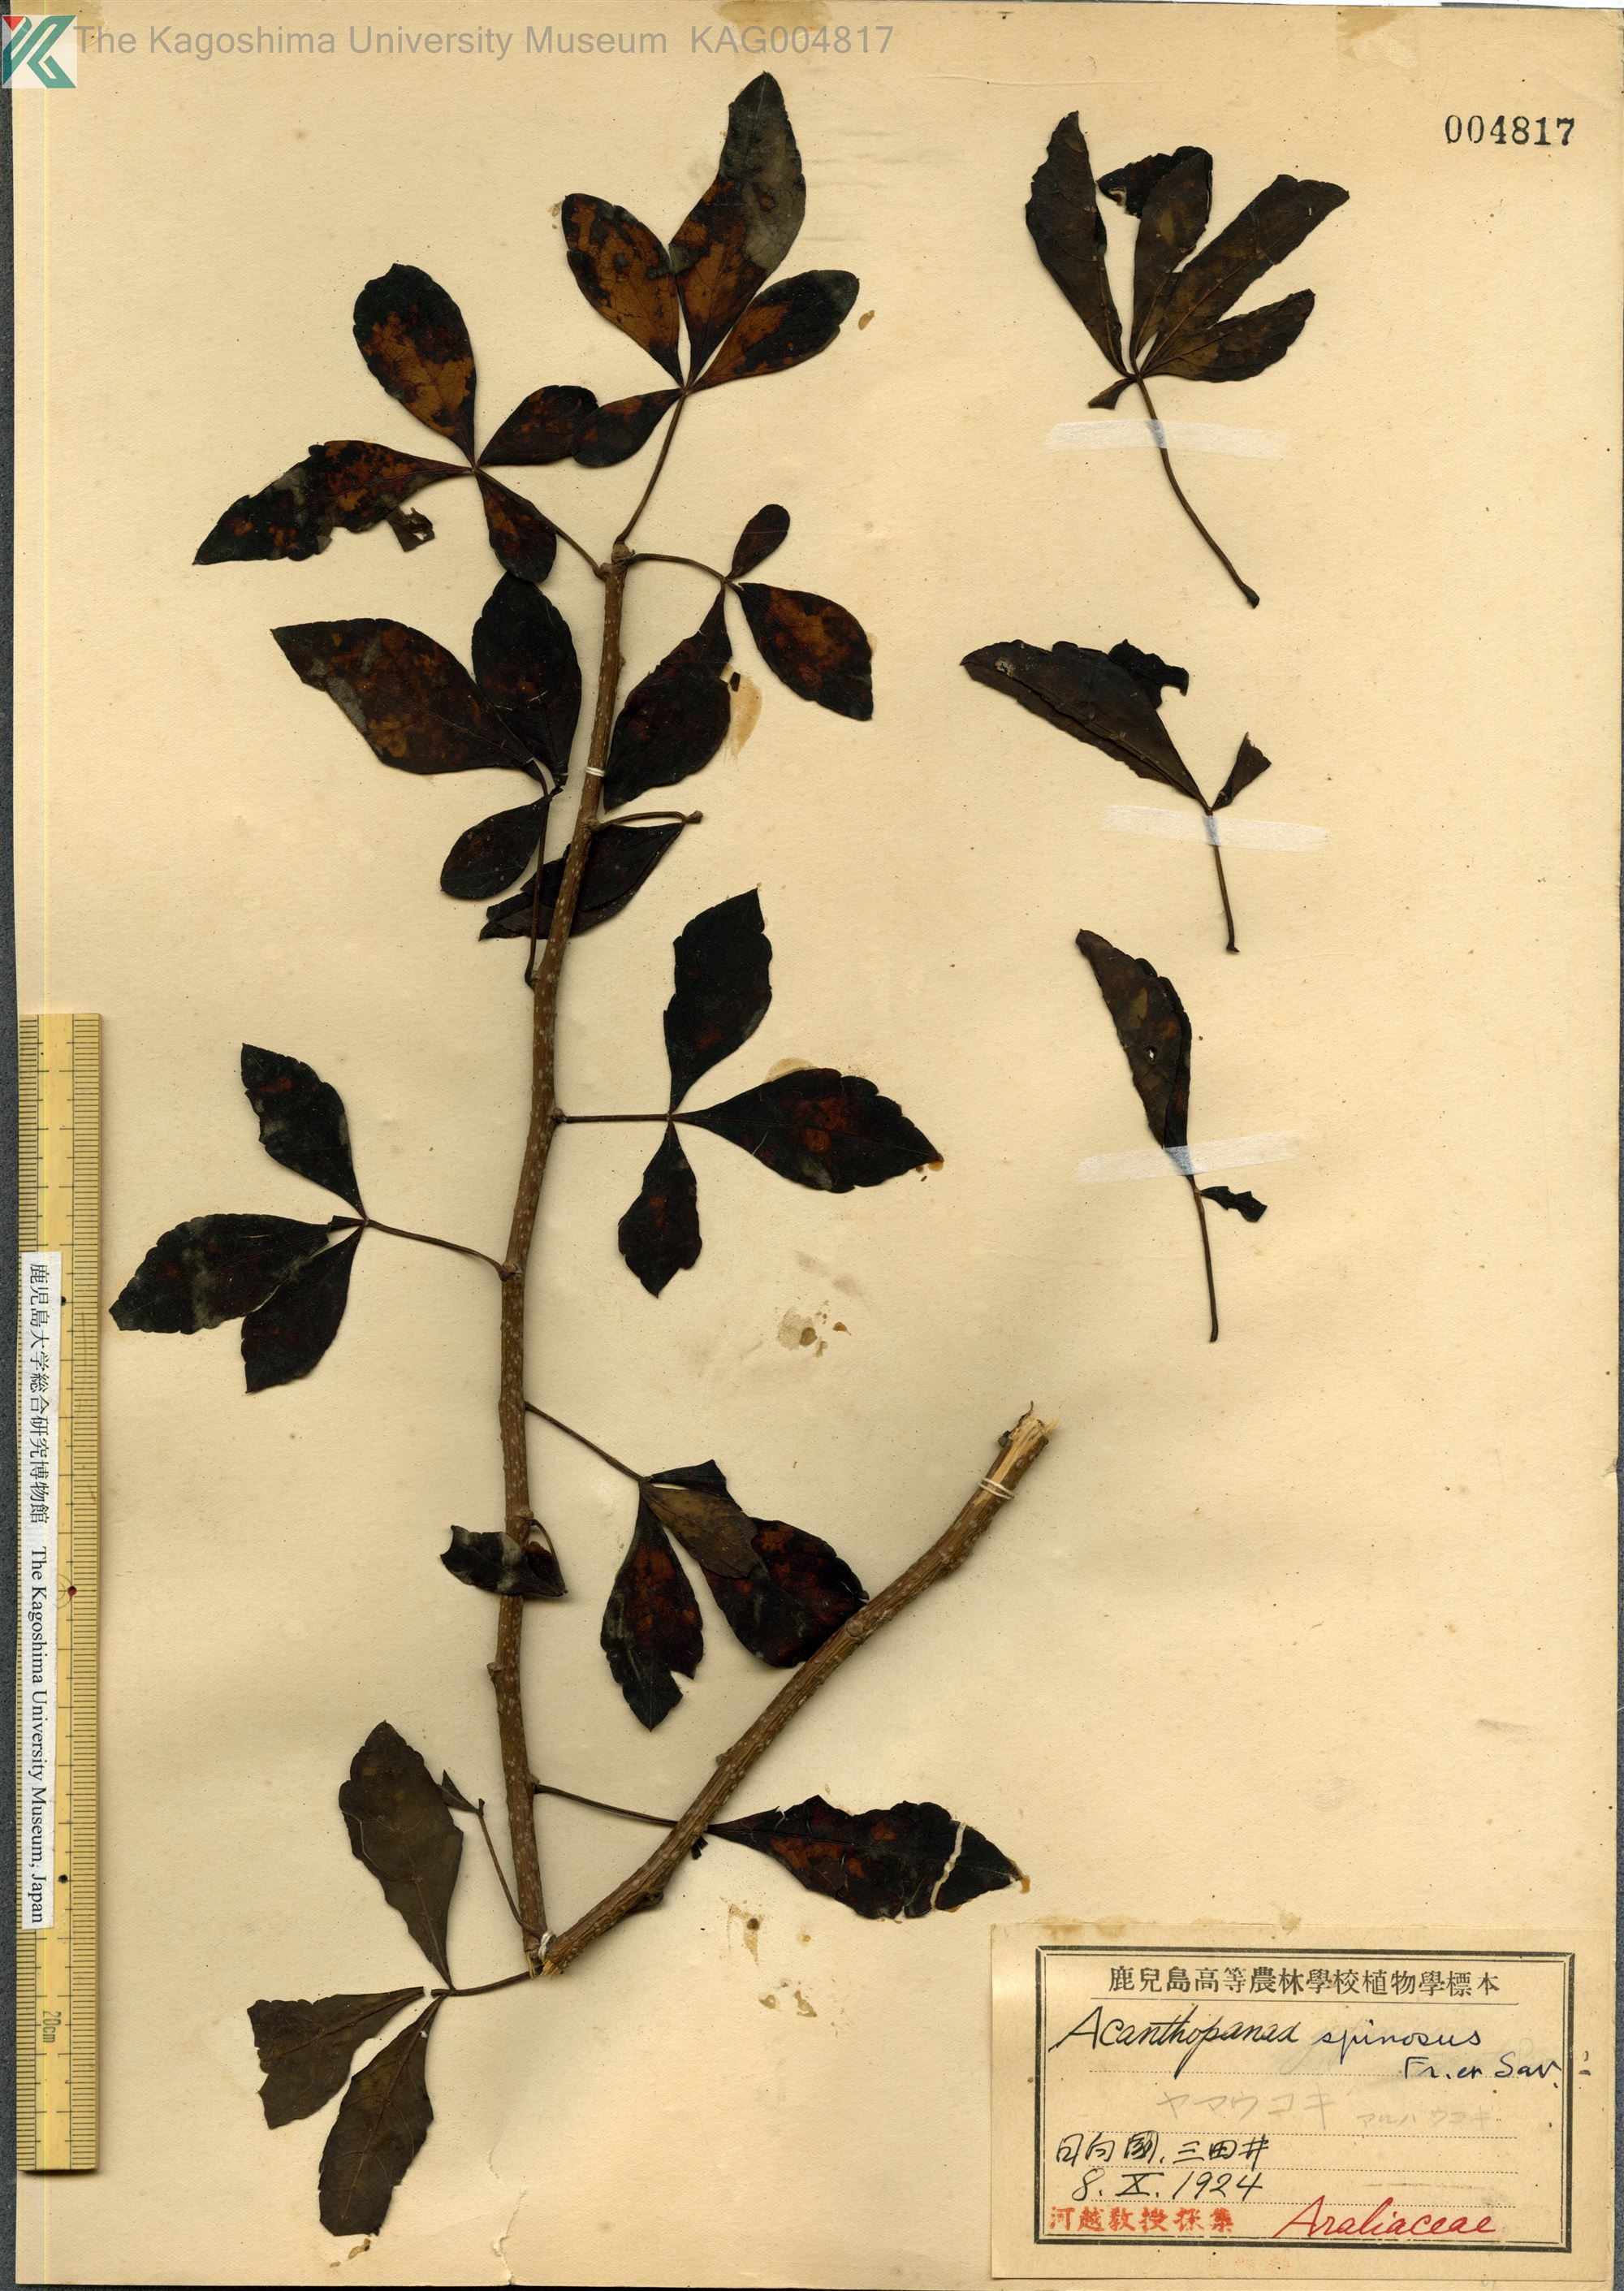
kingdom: Plantae
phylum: Tracheophyta
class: Magnoliopsida
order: Apiales
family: Araliaceae
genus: Eleutherococcus
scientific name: Eleutherococcus nodiflorus
